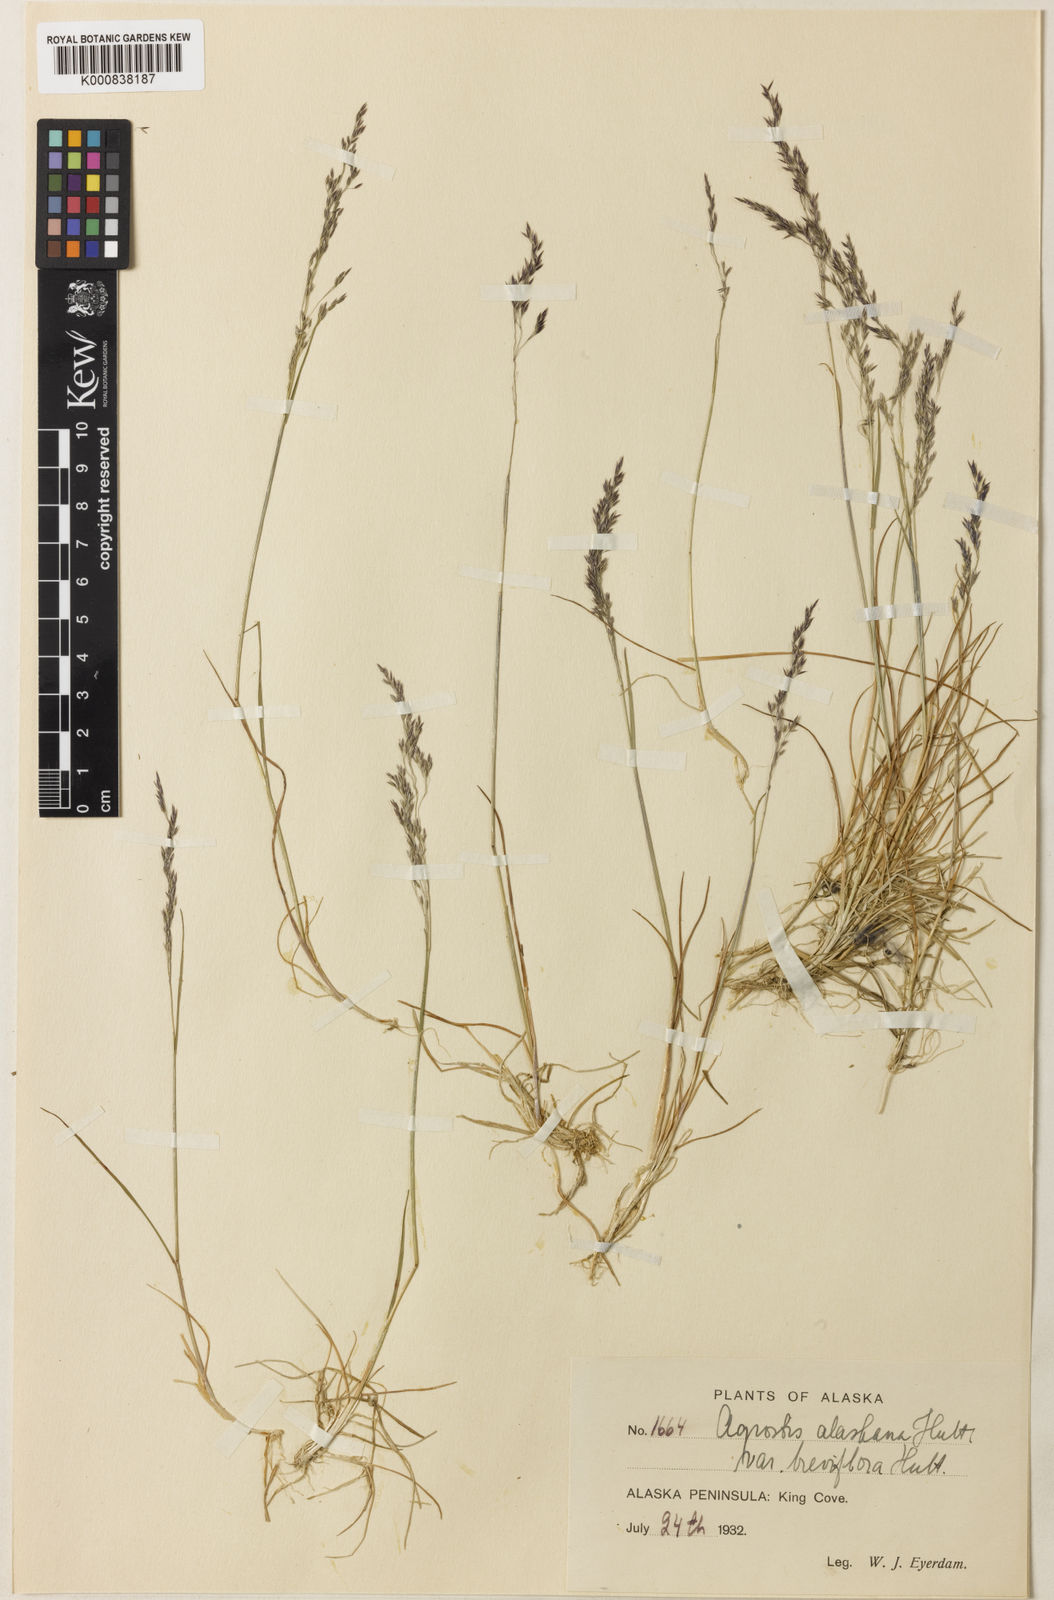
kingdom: Plantae
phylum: Tracheophyta
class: Liliopsida
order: Poales
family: Poaceae
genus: Agrostis
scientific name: Agrostis
